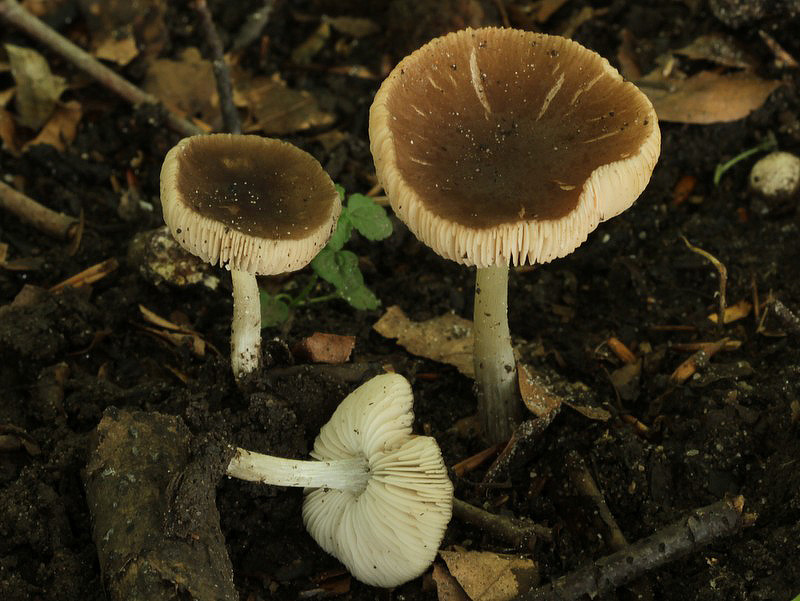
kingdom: Fungi
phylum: Basidiomycota
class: Agaricomycetes
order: Agaricales
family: Pluteaceae
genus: Pluteus
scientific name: Pluteus
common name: pudret skærmhat
